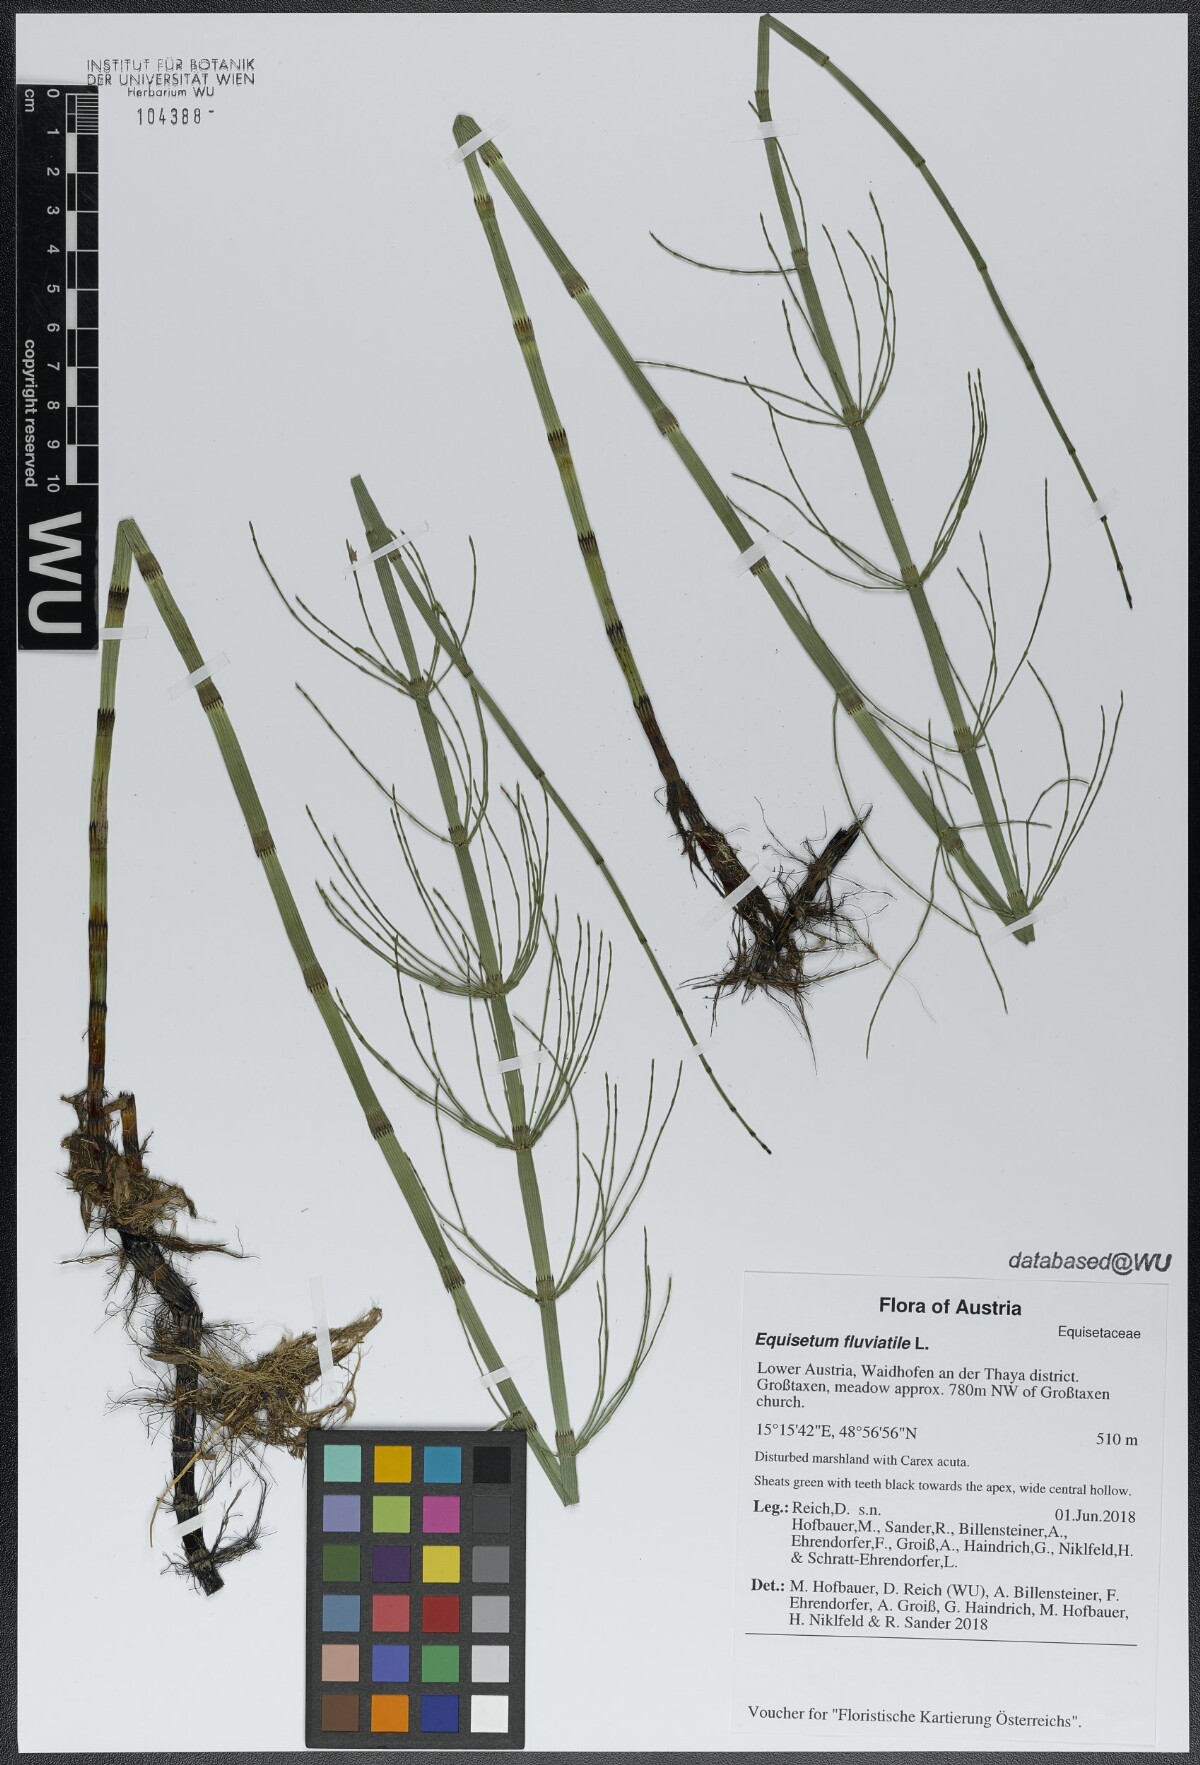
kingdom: Plantae
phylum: Tracheophyta
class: Polypodiopsida
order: Equisetales
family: Equisetaceae
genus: Equisetum
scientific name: Equisetum fluviatile
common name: Water horsetail
